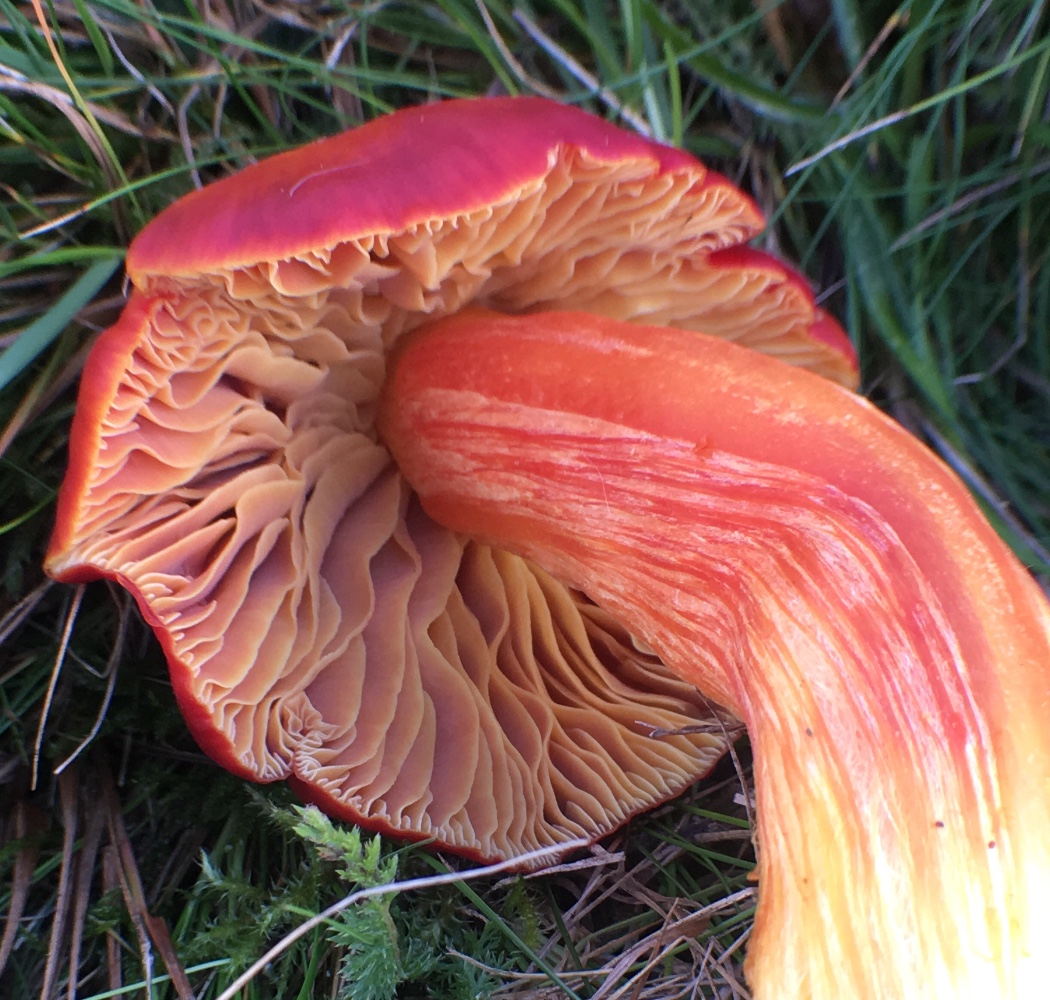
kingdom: Fungi
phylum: Basidiomycota
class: Agaricomycetes
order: Agaricales
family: Hygrophoraceae
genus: Hygrocybe
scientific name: Hygrocybe punicea
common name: skarlagen-vokshat
